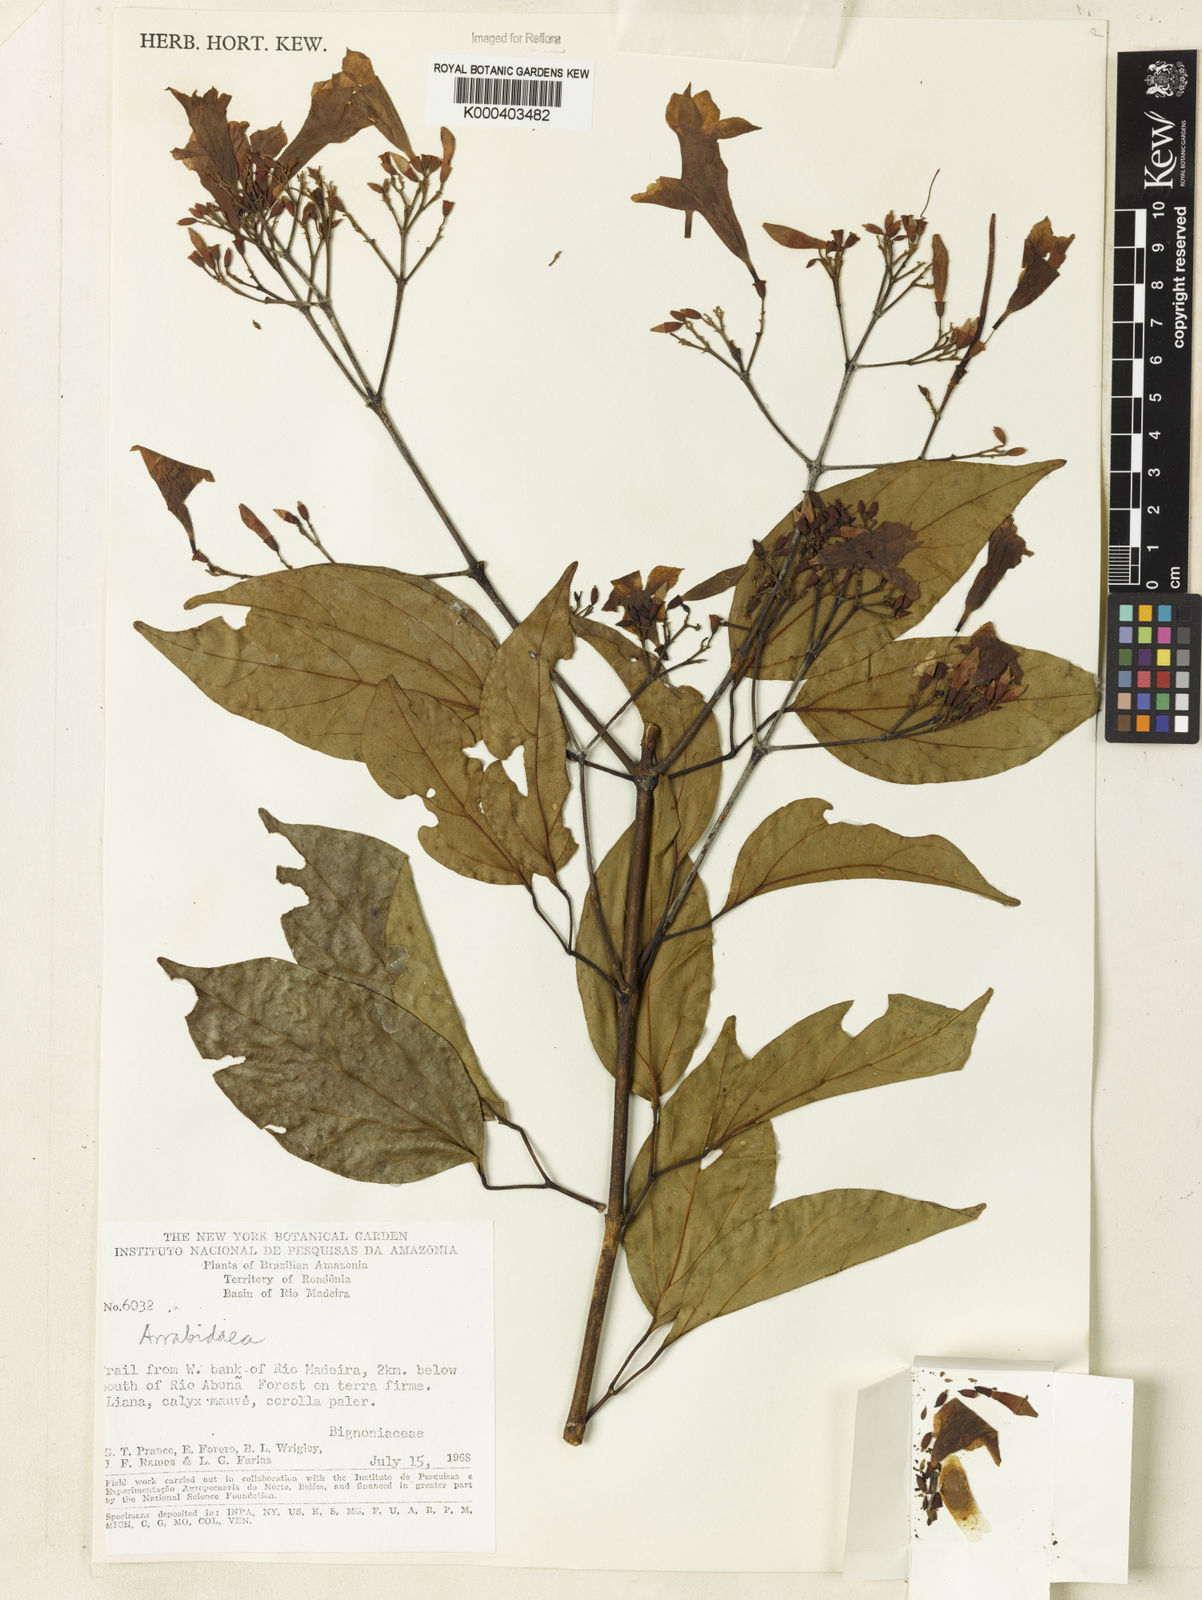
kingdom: Plantae
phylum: Tracheophyta
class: Magnoliopsida
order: Rosales
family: Rhamnaceae
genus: Arrabidaea
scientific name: Arrabidaea
